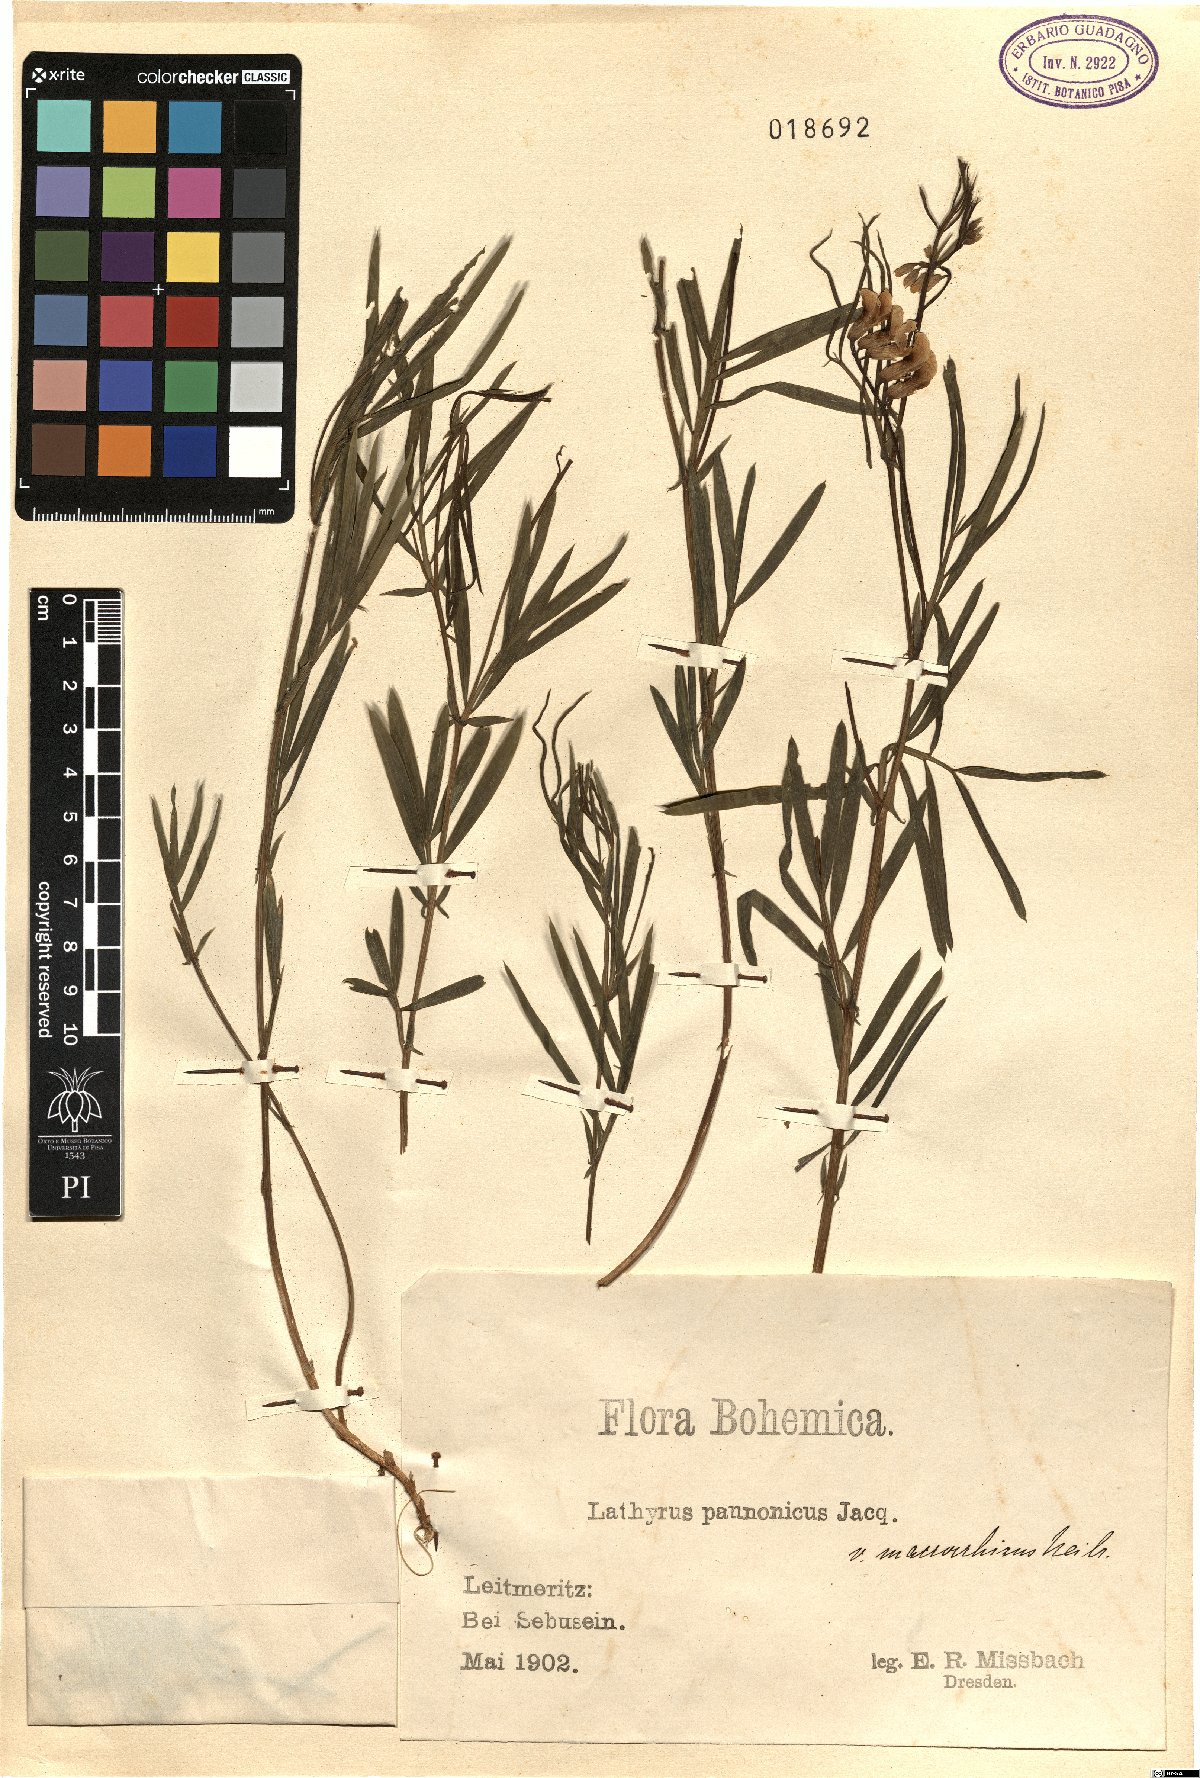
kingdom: Plantae
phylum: Tracheophyta
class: Magnoliopsida
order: Fabales
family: Fabaceae
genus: Lathyrus
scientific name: Lathyrus pannonicus
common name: Pea
